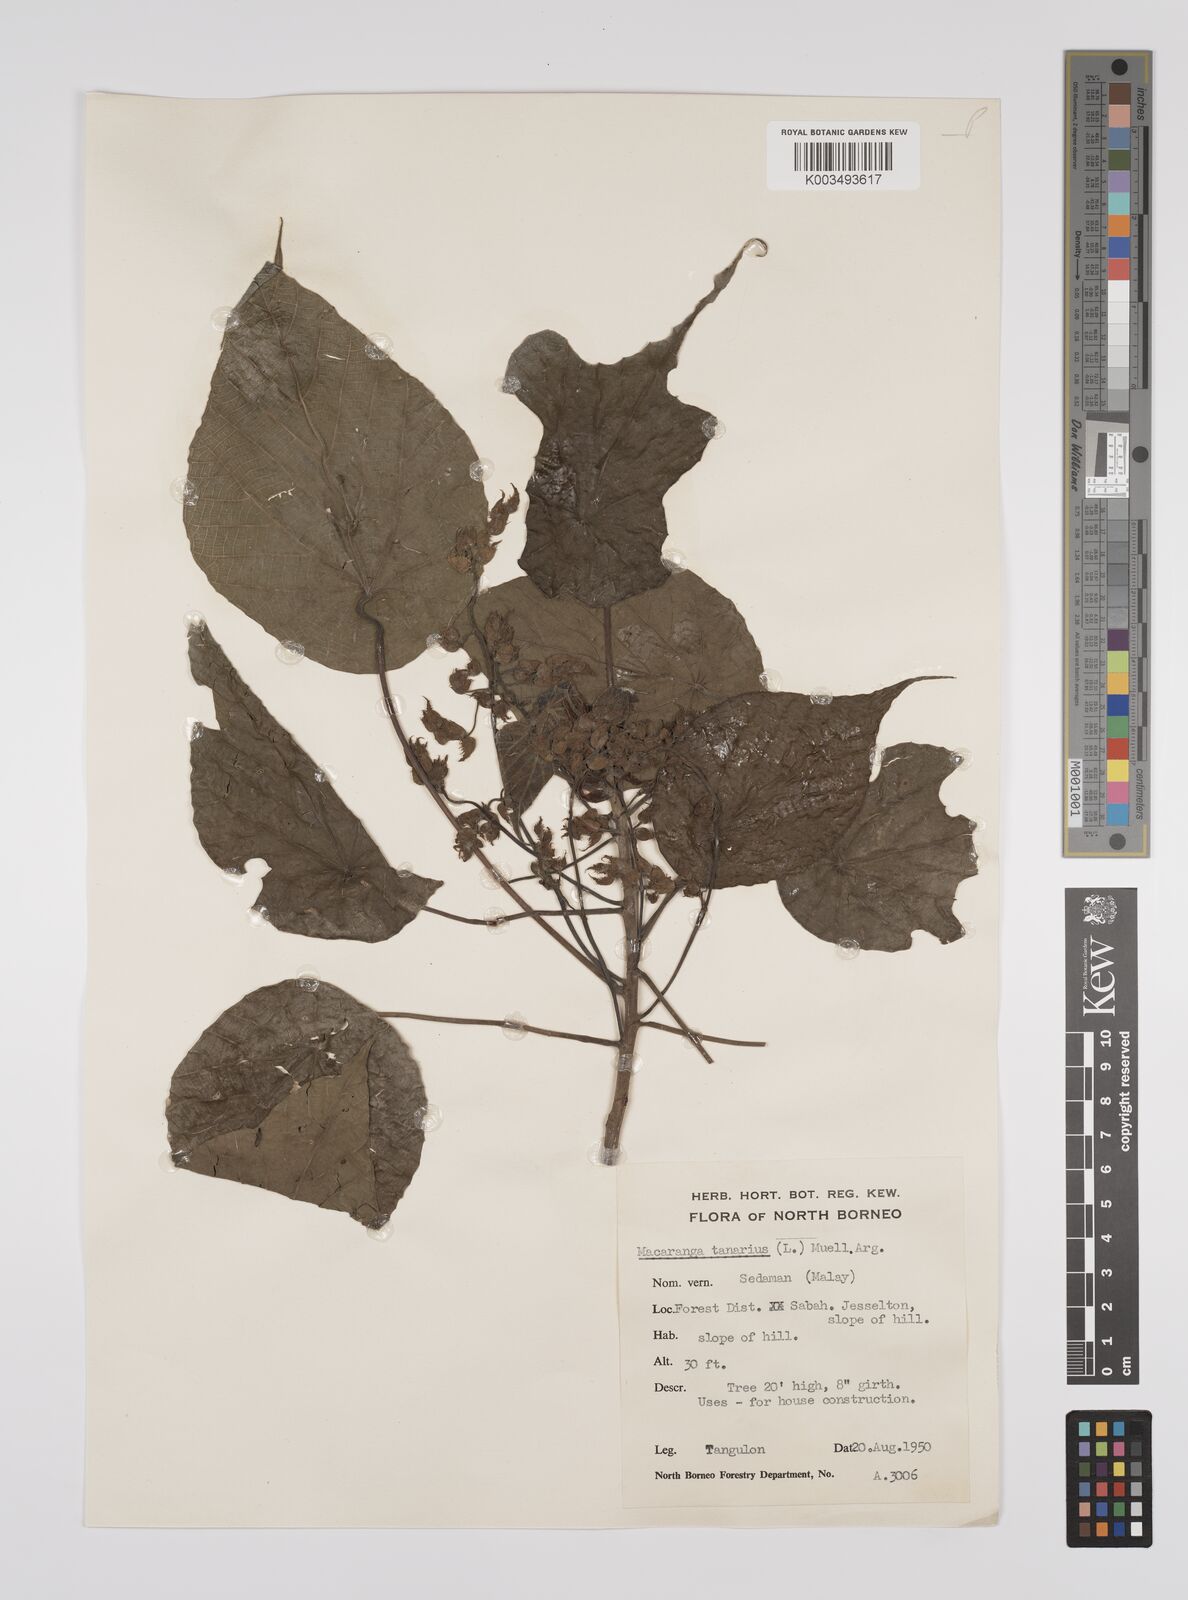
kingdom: Plantae
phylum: Tracheophyta
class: Magnoliopsida
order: Malpighiales
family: Euphorbiaceae
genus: Macaranga
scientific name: Macaranga tanarius
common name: Parasol leaf tree
